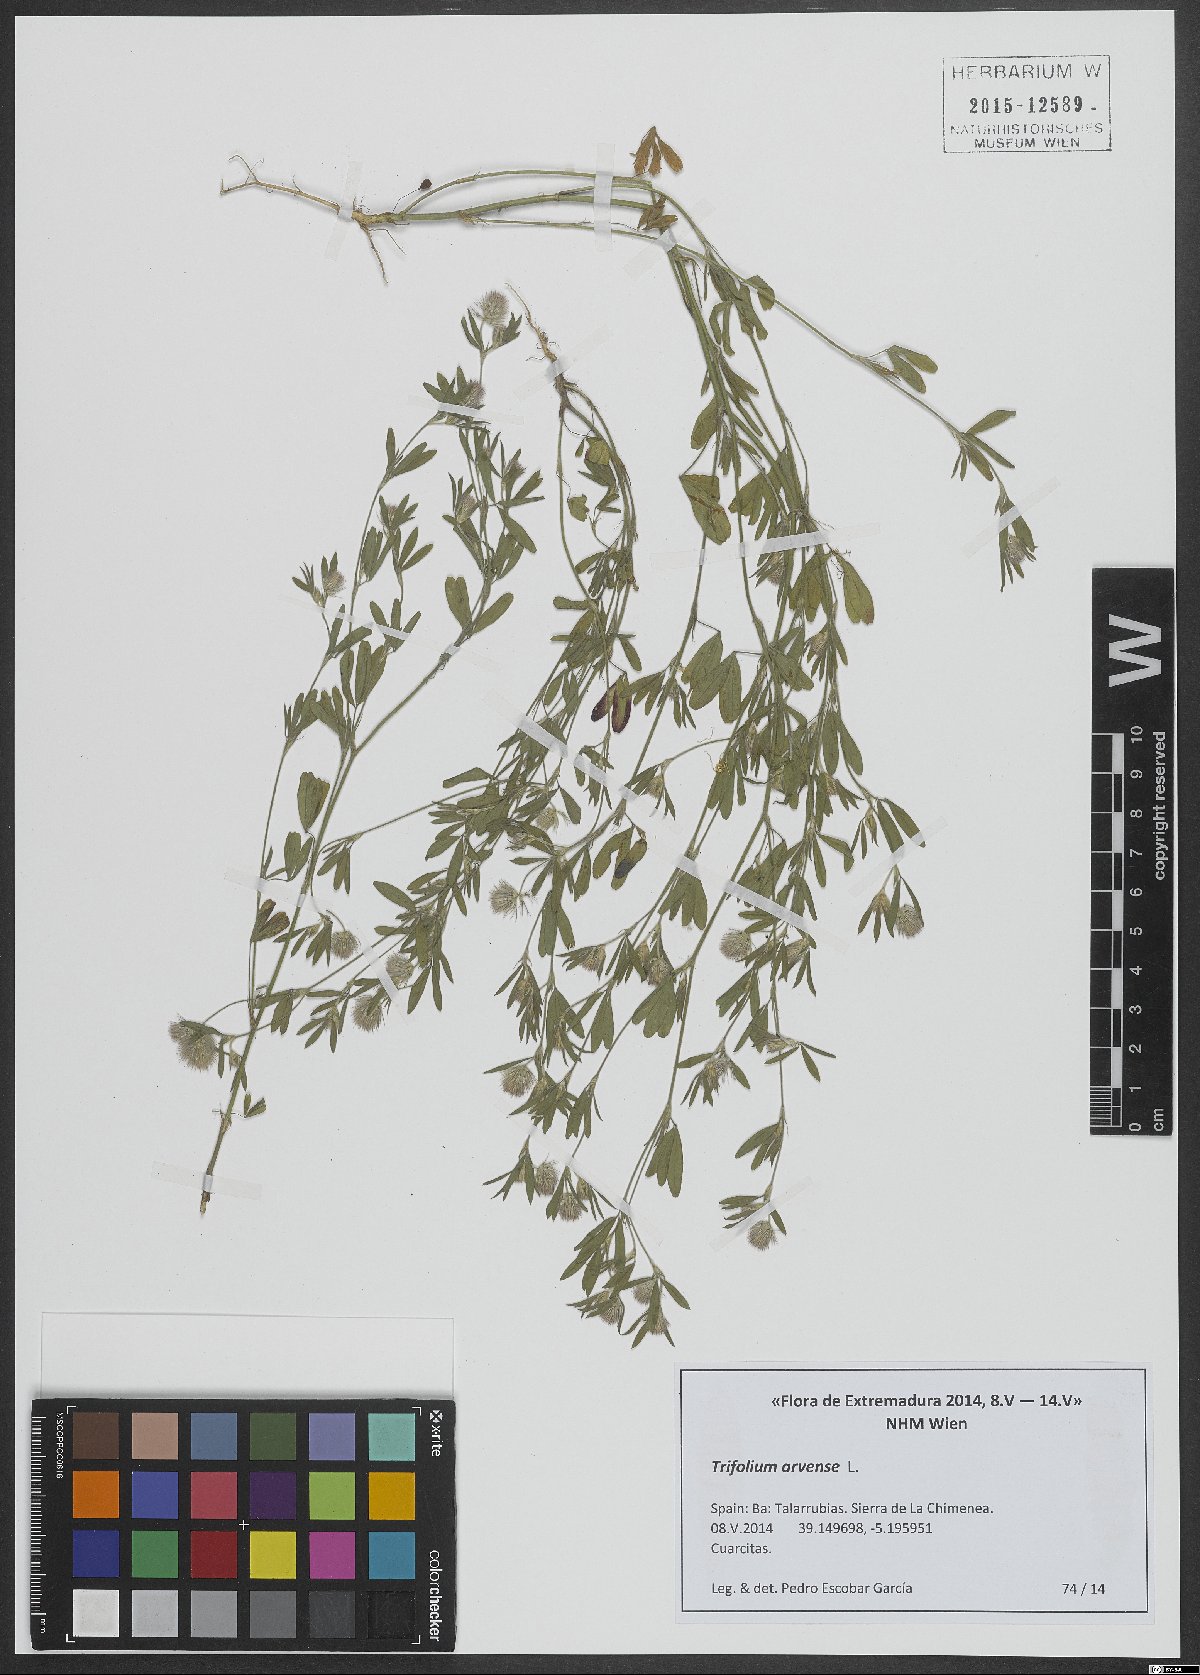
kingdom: Plantae
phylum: Tracheophyta
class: Magnoliopsida
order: Fabales
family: Fabaceae
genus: Trifolium
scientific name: Trifolium arvense
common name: Hare's-foot clover
